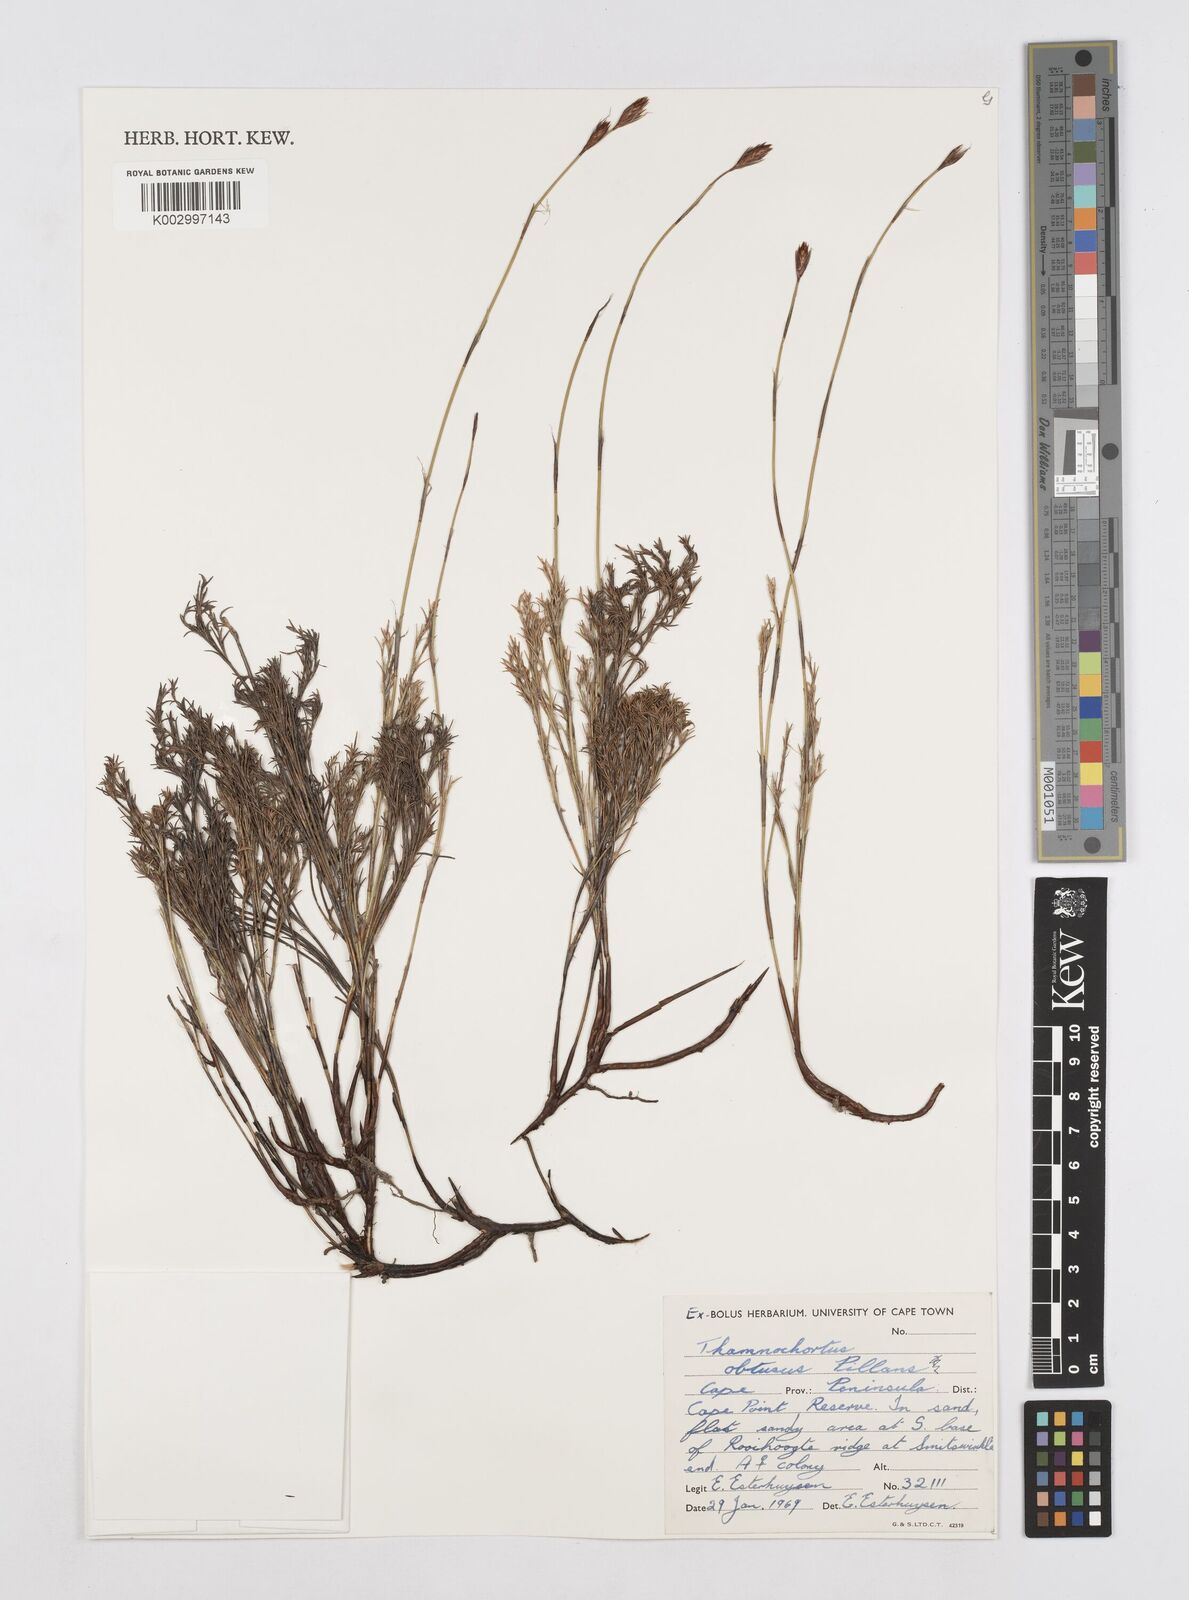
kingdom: Plantae
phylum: Tracheophyta
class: Liliopsida
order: Poales
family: Restionaceae
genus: Thamnochortus
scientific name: Thamnochortus obtusus
